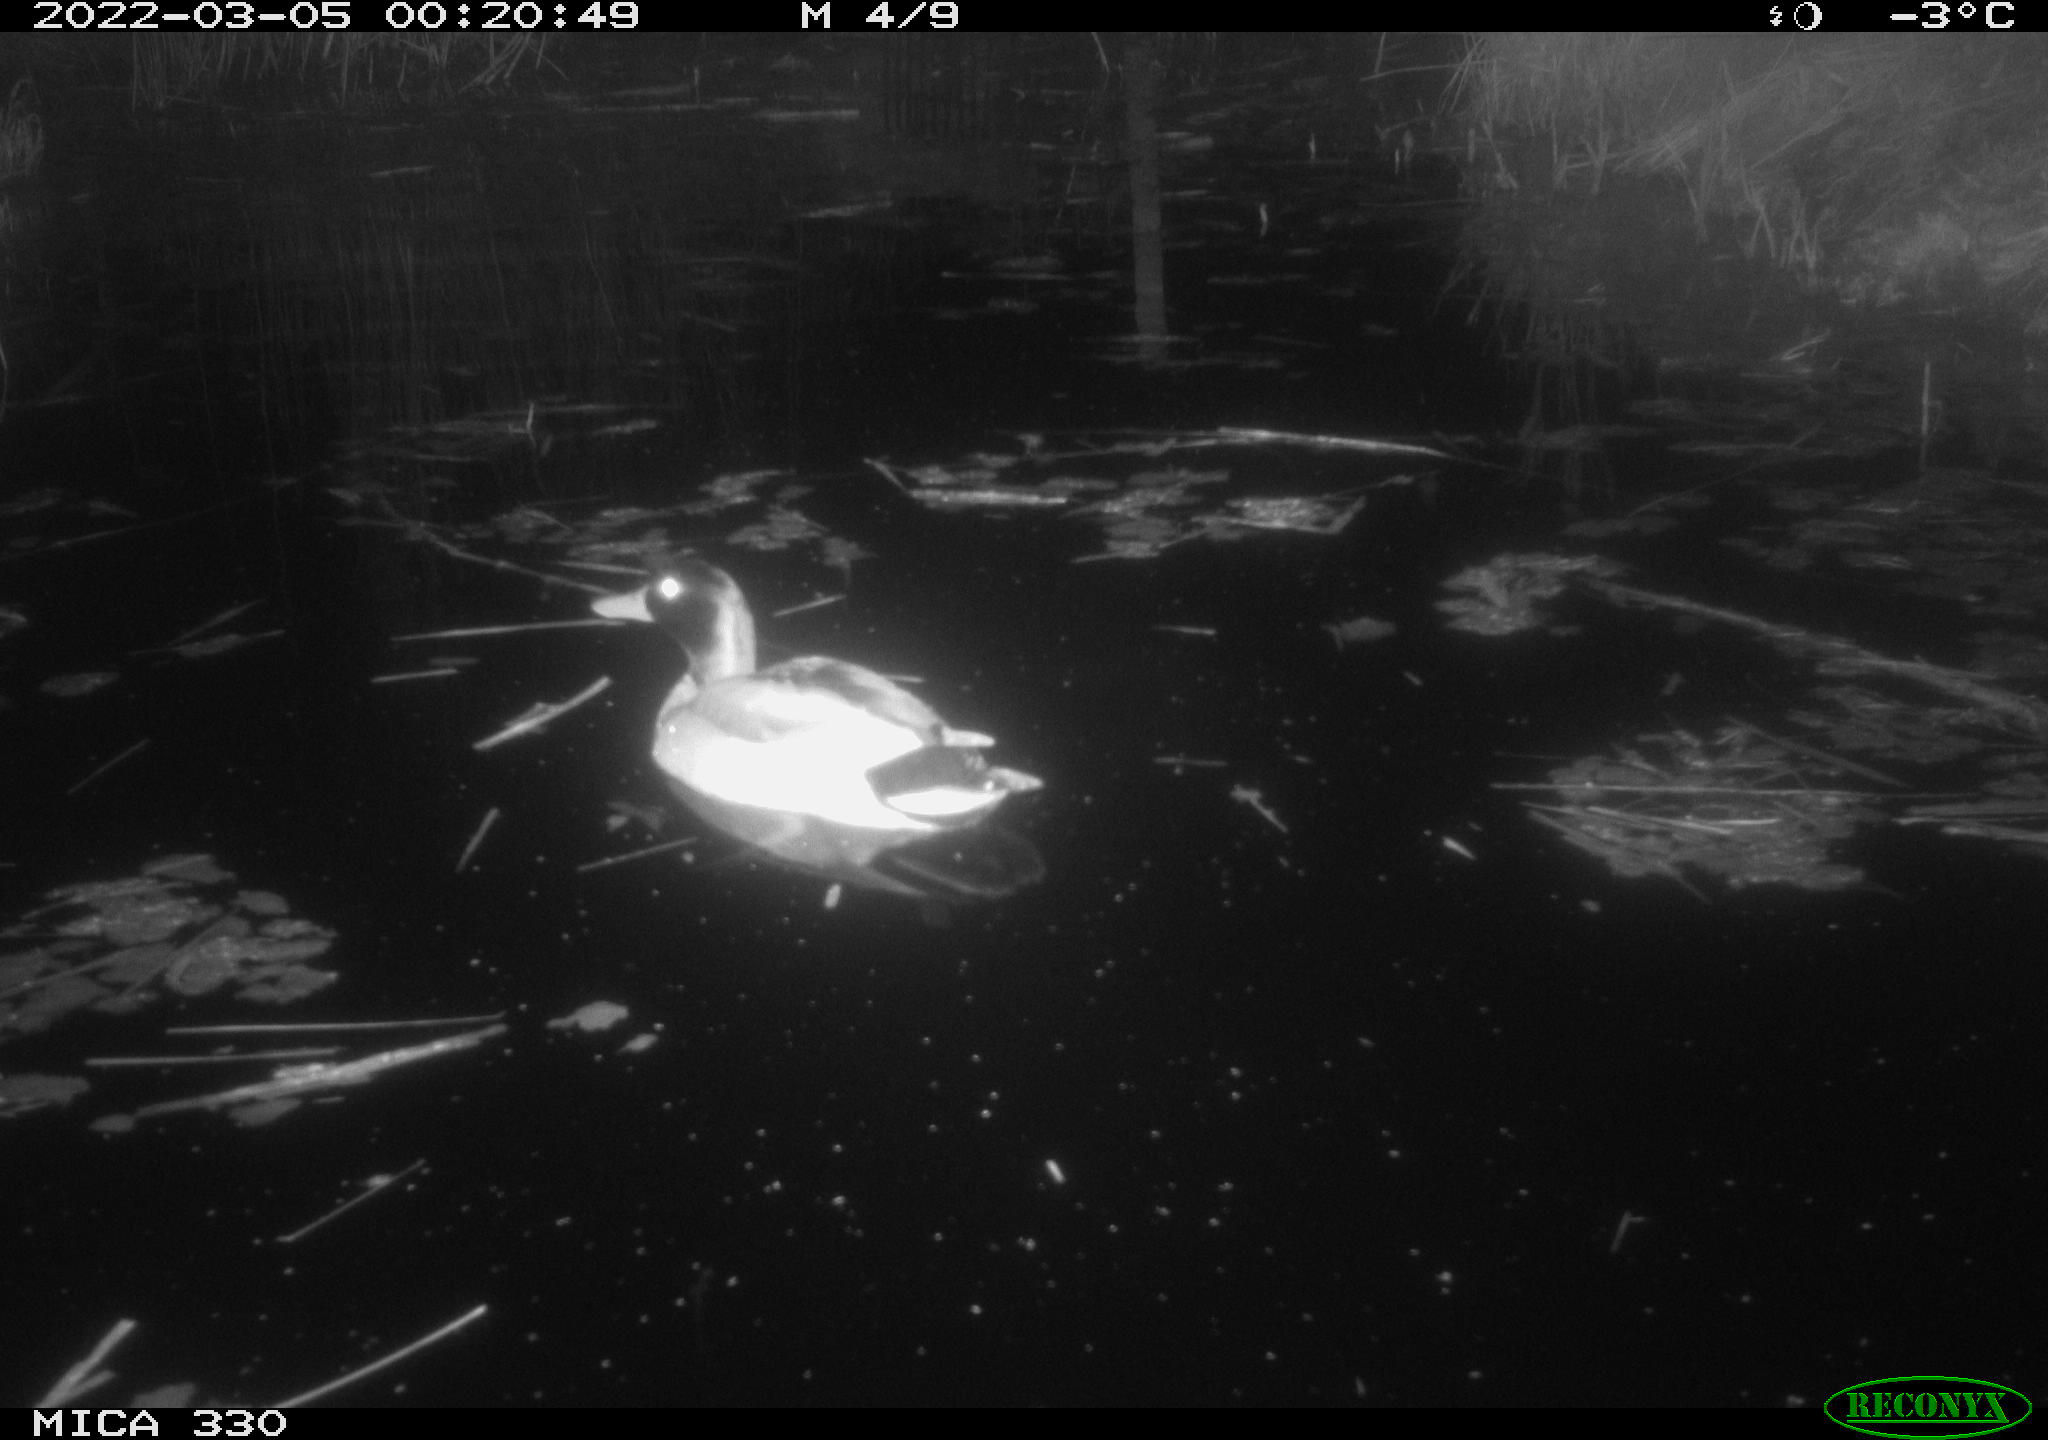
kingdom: Animalia
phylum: Chordata
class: Aves
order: Anseriformes
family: Anatidae
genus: Anas
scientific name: Anas platyrhynchos
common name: Mallard
